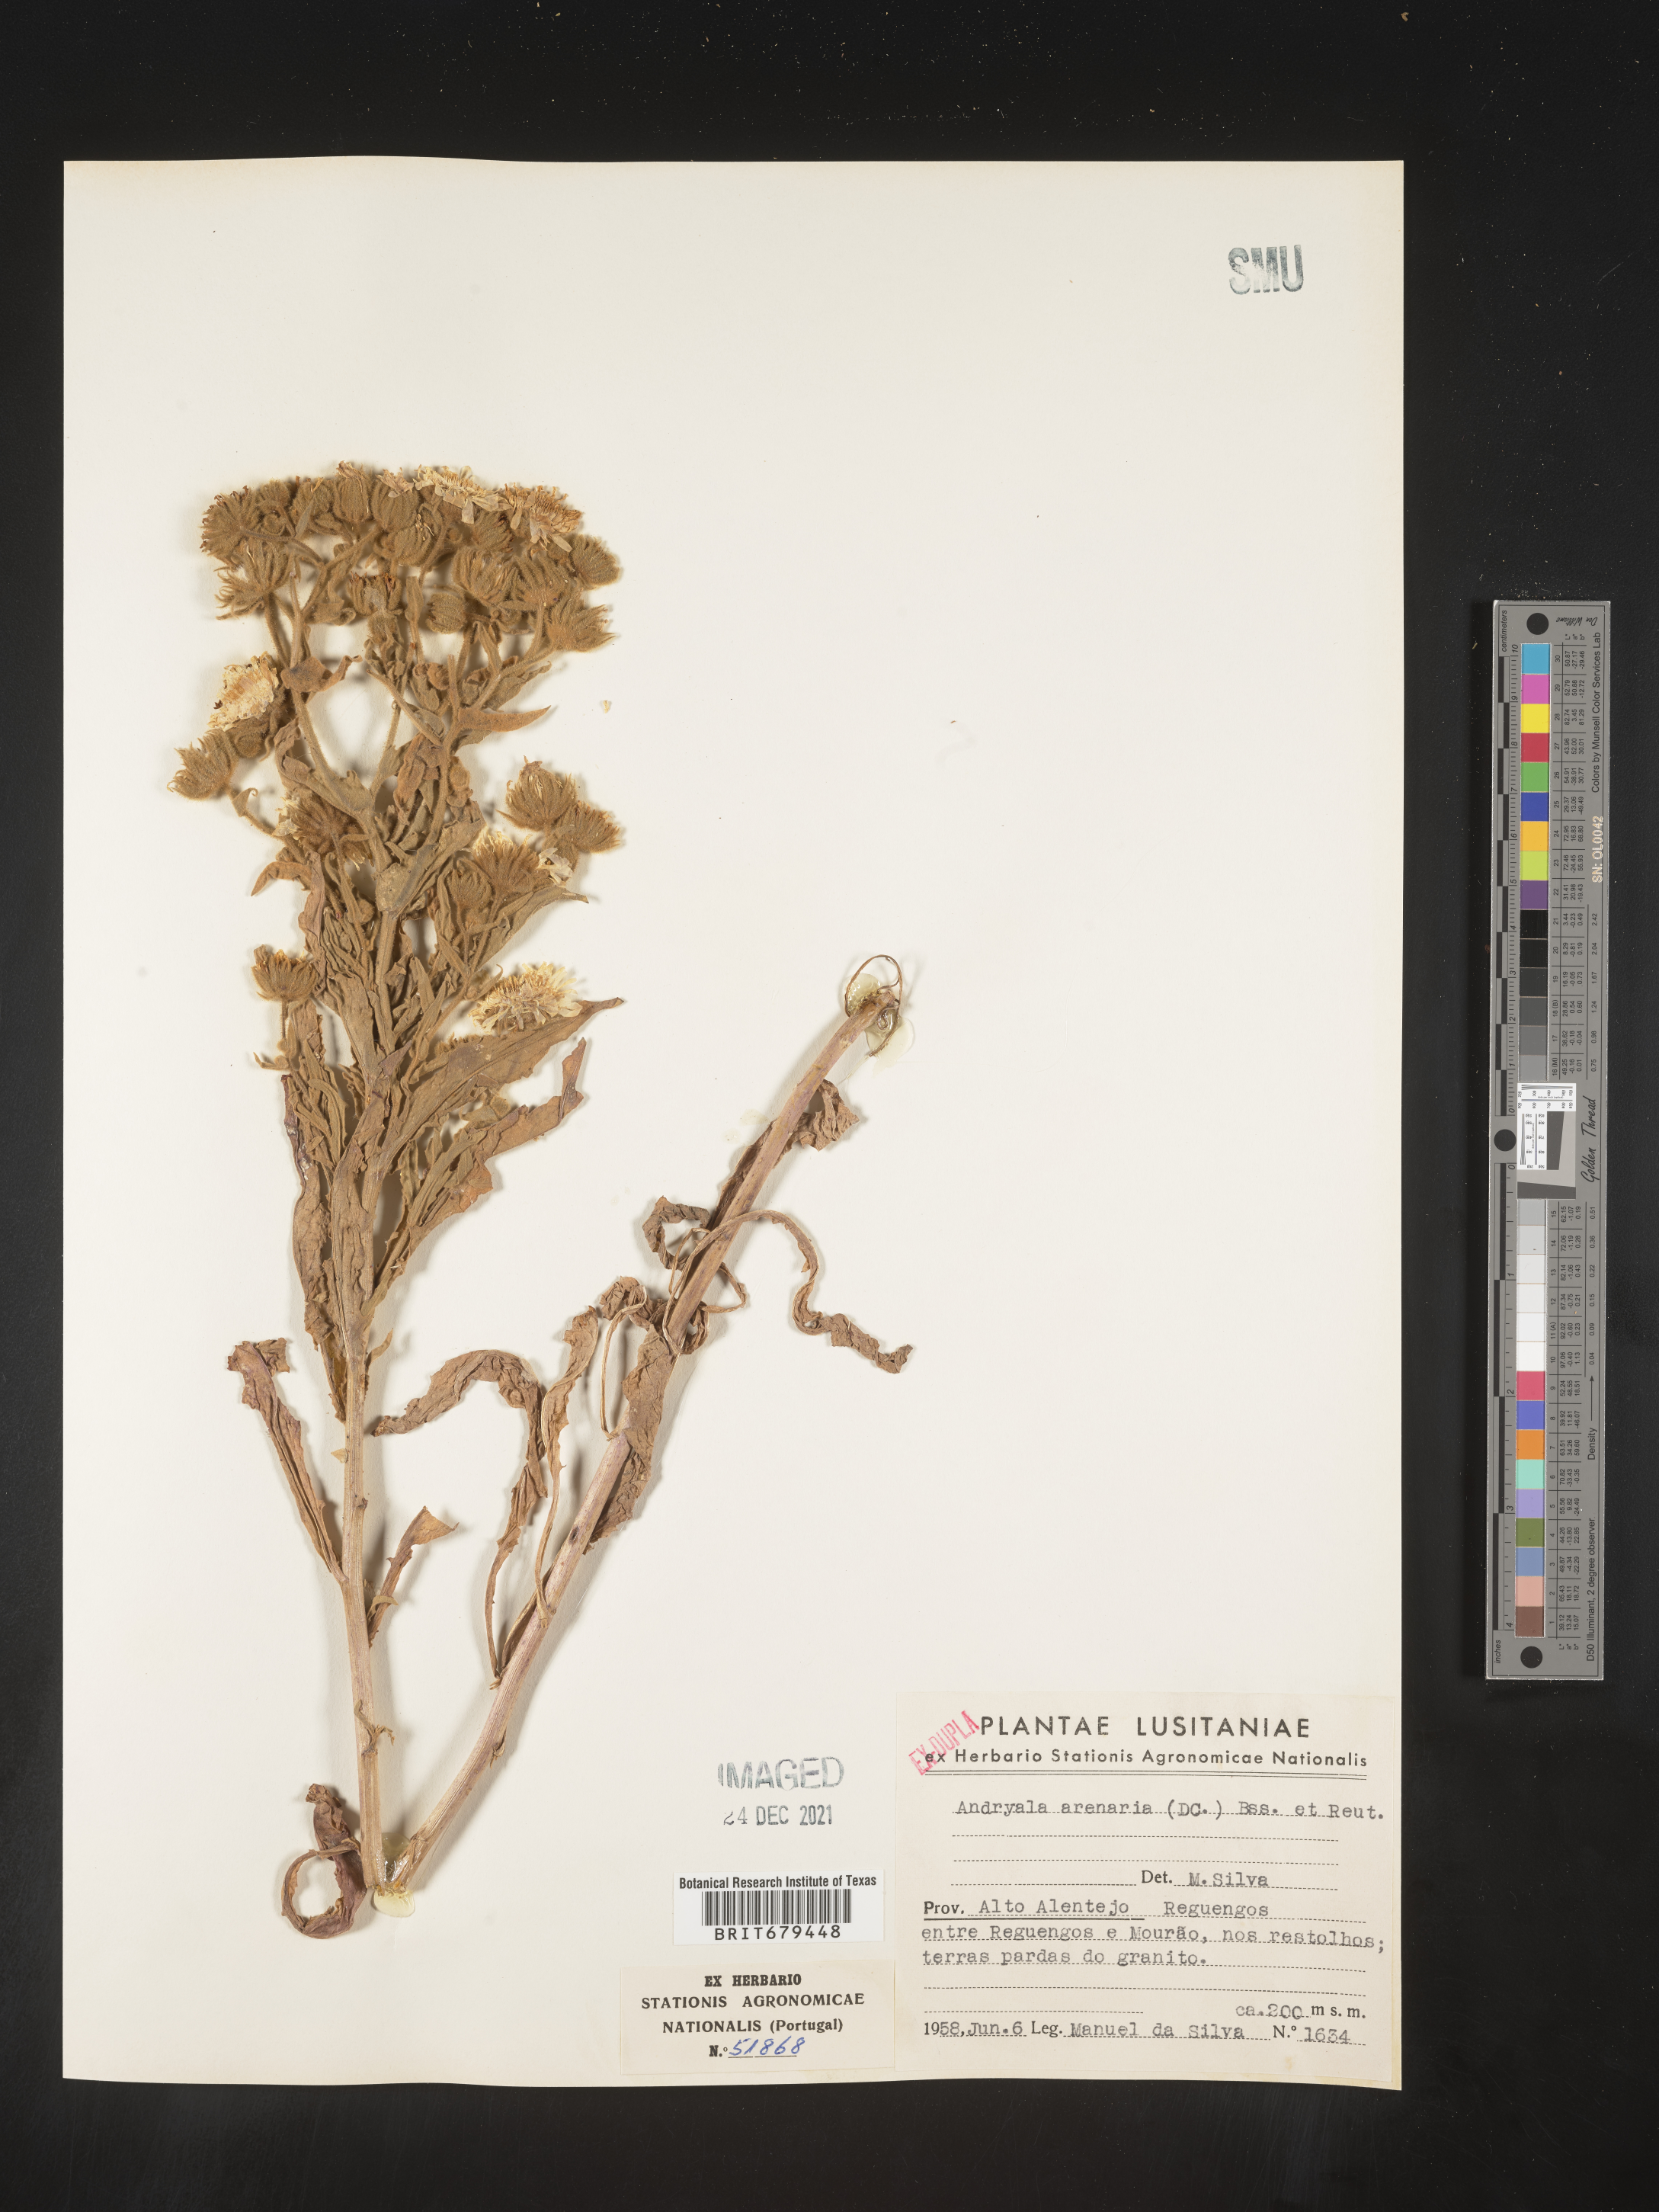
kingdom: Plantae
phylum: Tracheophyta
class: Magnoliopsida
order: Asterales
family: Asteraceae
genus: Andryala
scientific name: Andryala
